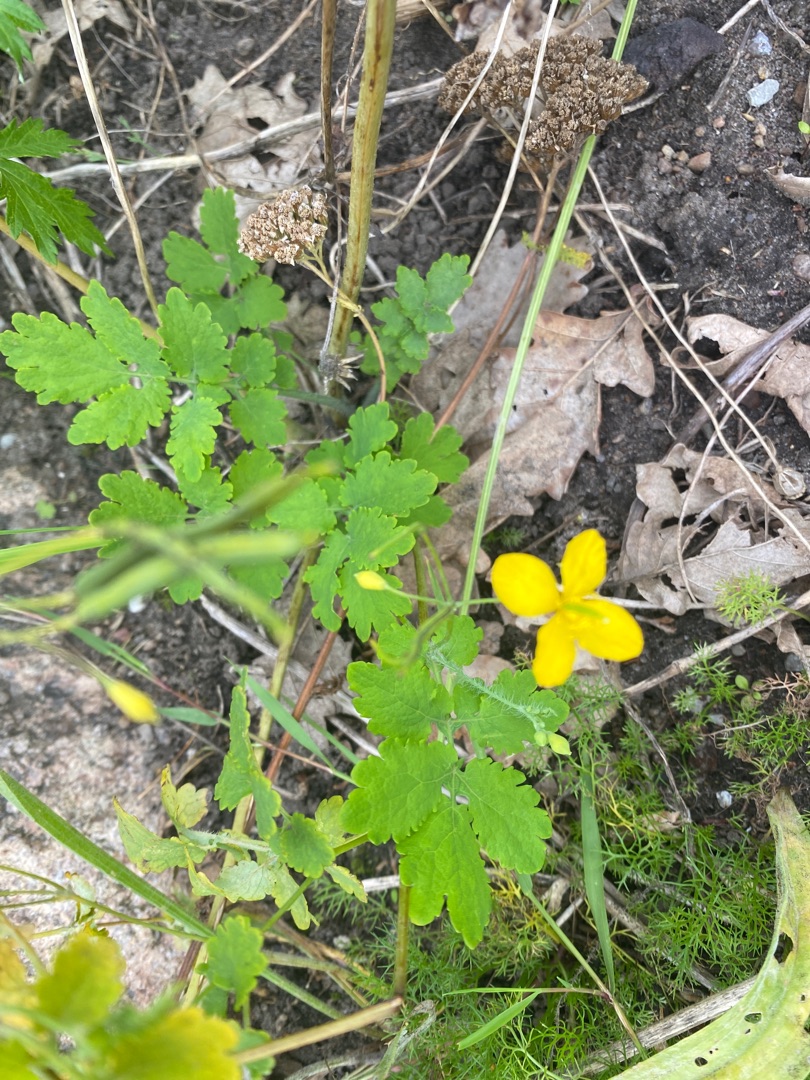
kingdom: Plantae
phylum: Tracheophyta
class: Magnoliopsida
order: Ranunculales
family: Papaveraceae
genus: Chelidonium
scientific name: Chelidonium majus
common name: Svaleurt
